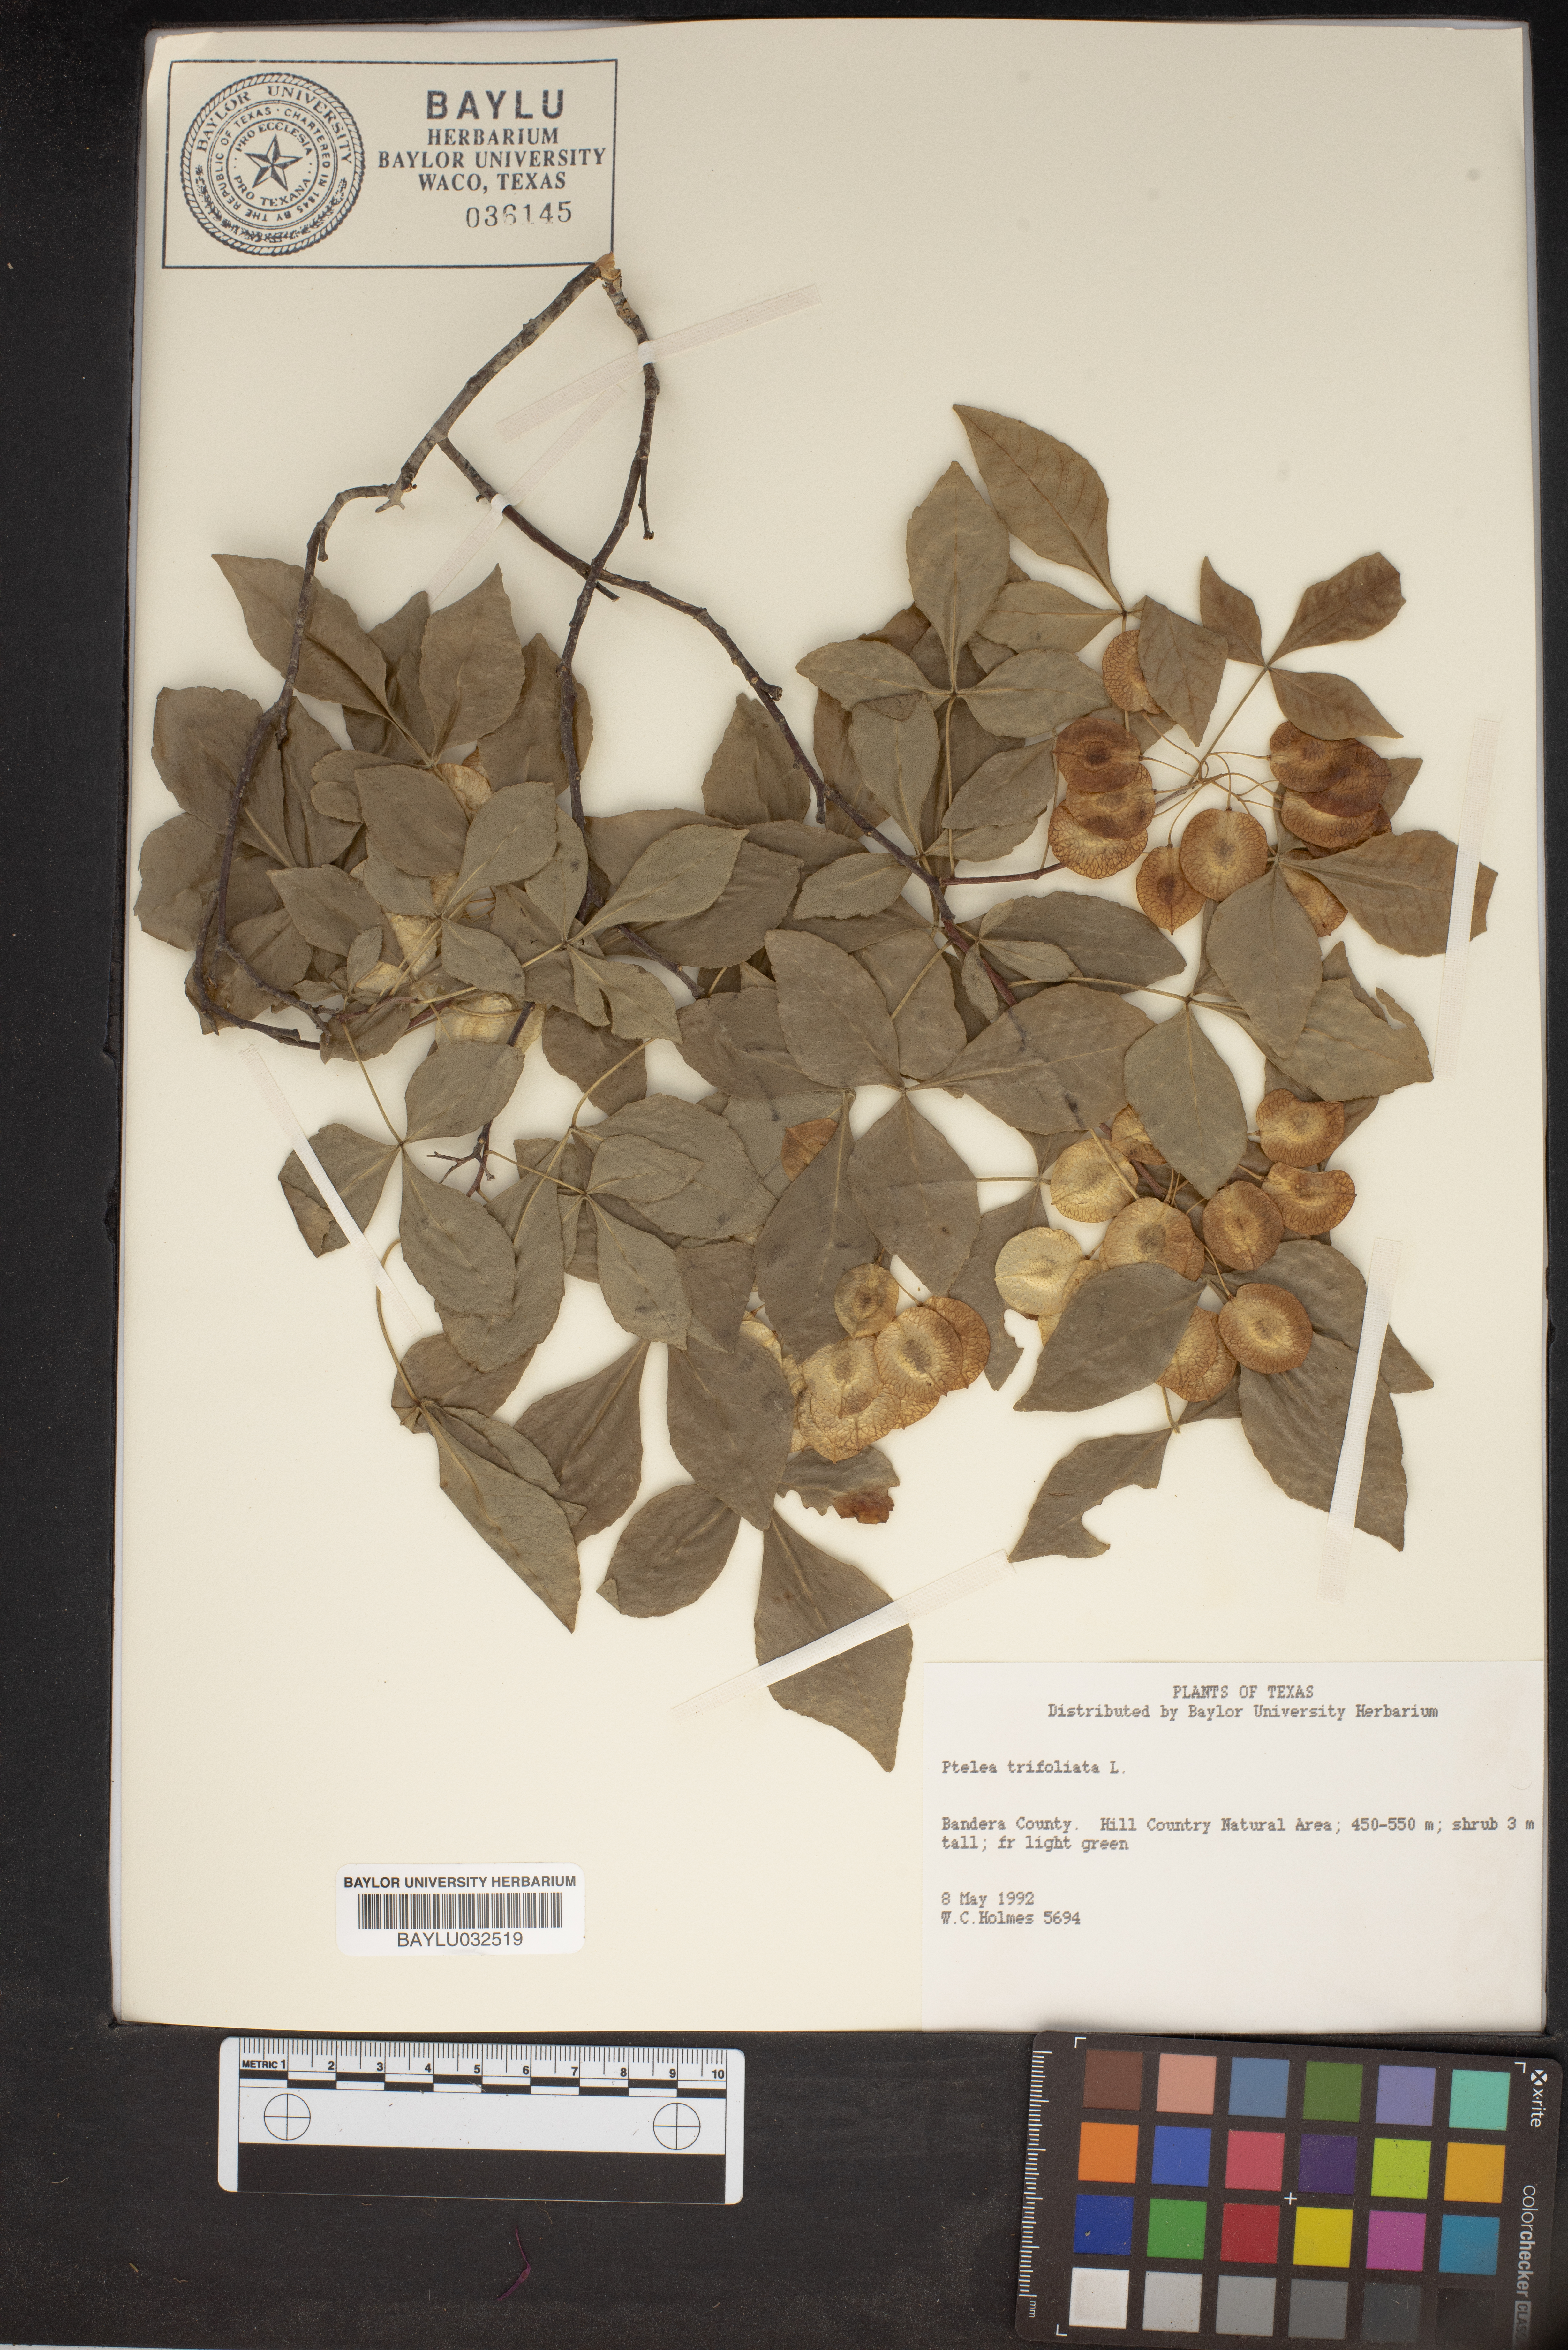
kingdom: Plantae
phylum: Tracheophyta
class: Magnoliopsida
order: Sapindales
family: Rutaceae
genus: Ptelea
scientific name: Ptelea trifoliata
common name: Common hop-tree
